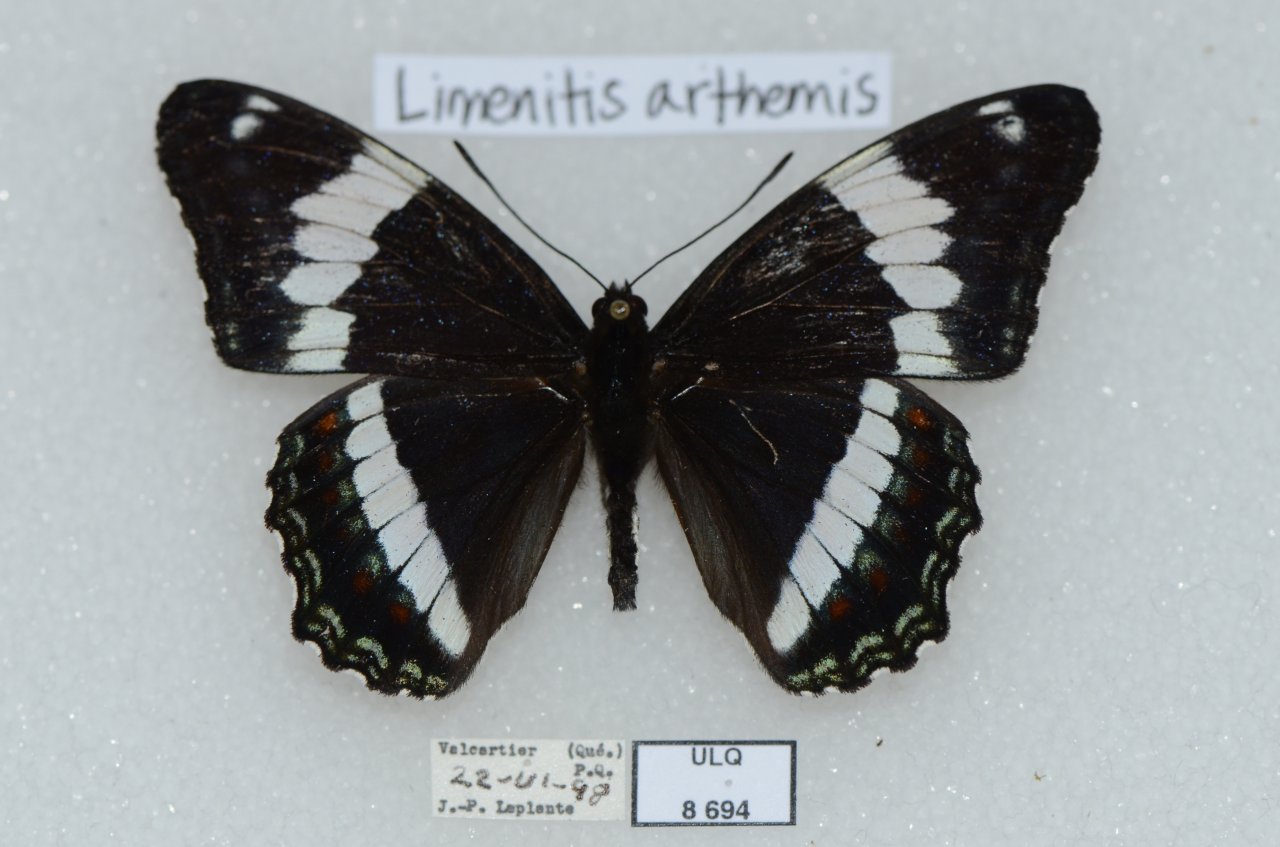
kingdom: Animalia
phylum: Arthropoda
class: Insecta
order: Lepidoptera
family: Nymphalidae
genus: Limenitis
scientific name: Limenitis arthemis
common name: Red-spotted Admiral
